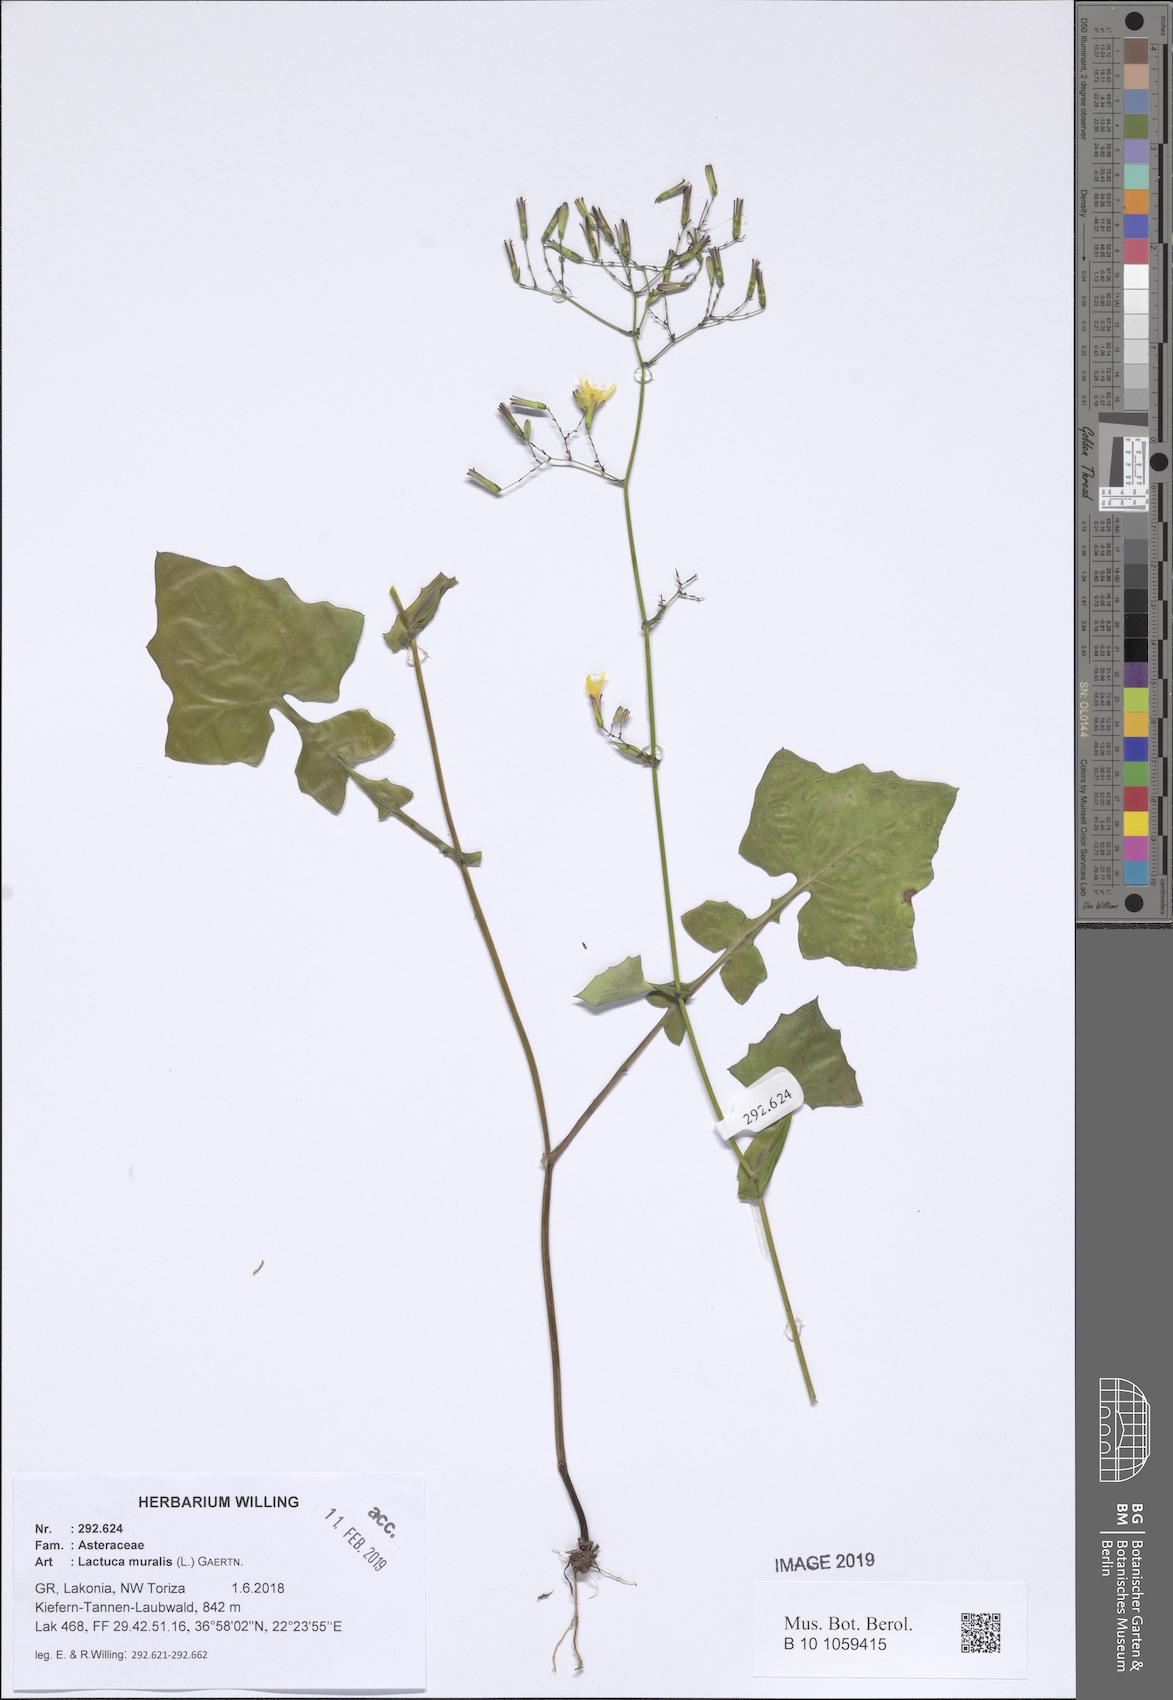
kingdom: Plantae
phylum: Tracheophyta
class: Magnoliopsida
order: Asterales
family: Asteraceae
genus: Mycelis
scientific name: Mycelis muralis
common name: Wall lettuce
